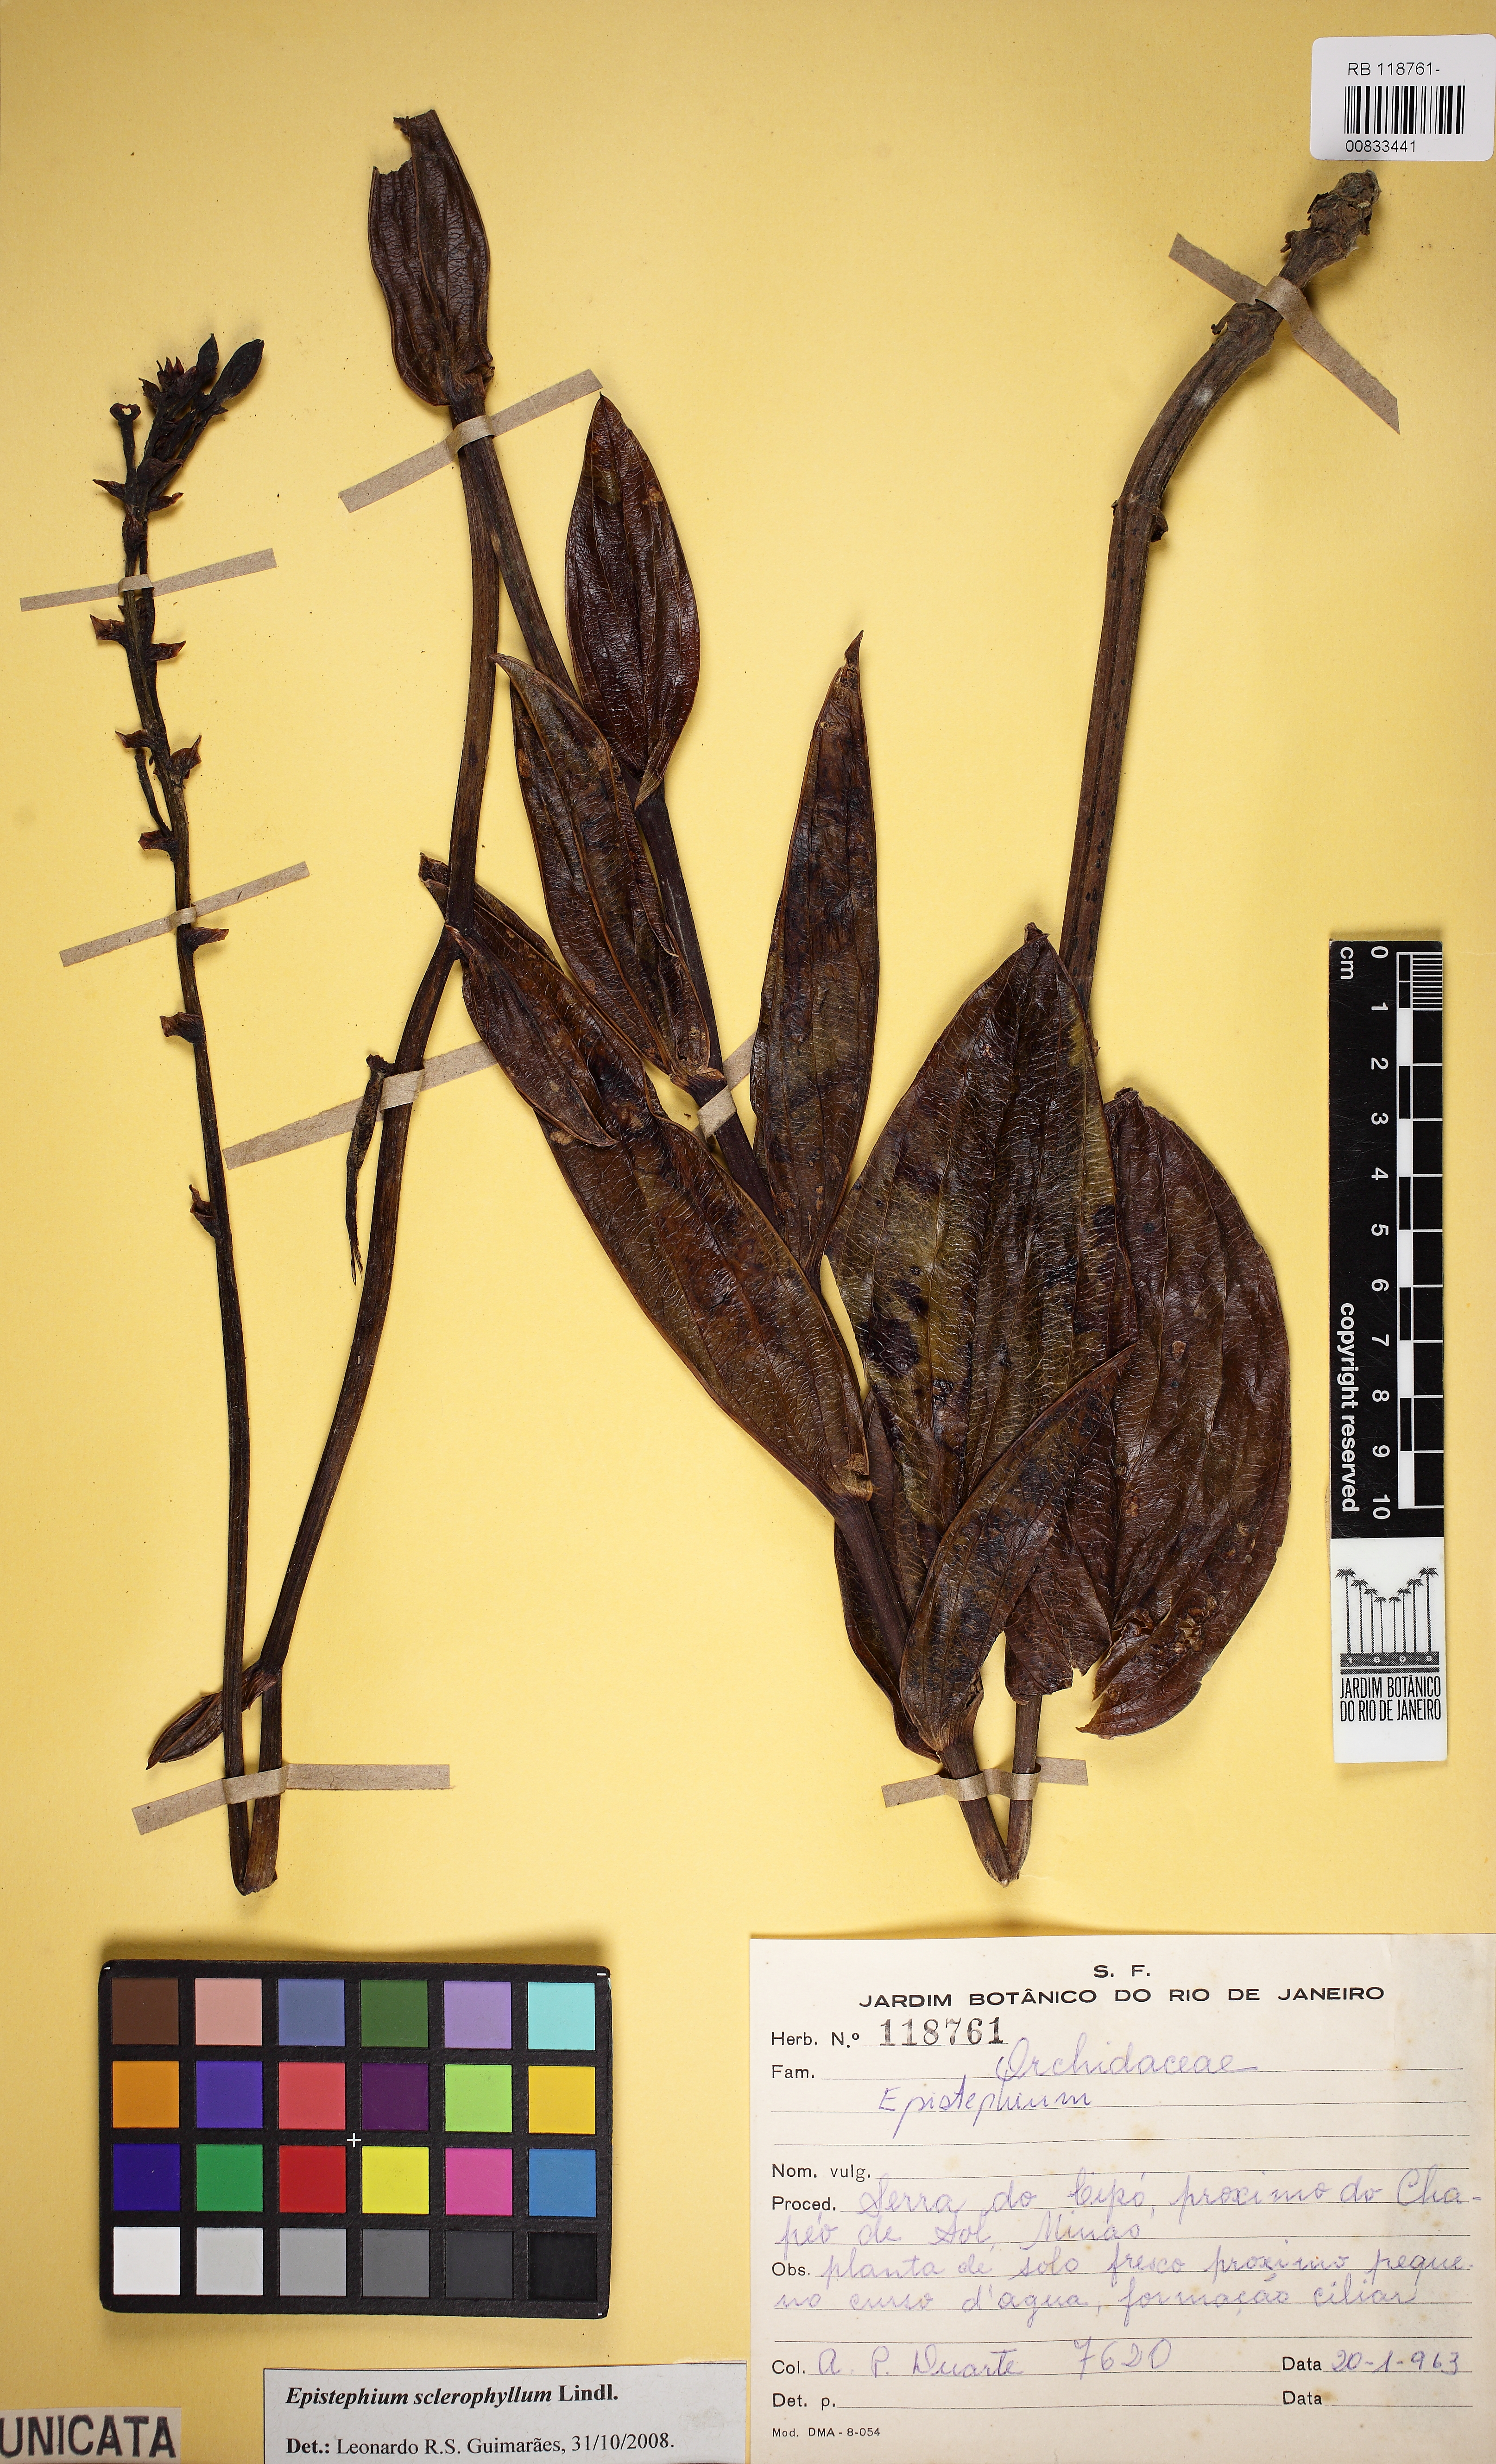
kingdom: Plantae
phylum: Tracheophyta
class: Liliopsida
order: Asparagales
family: Orchidaceae
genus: Epistephium
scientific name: Epistephium sclerophyllum
